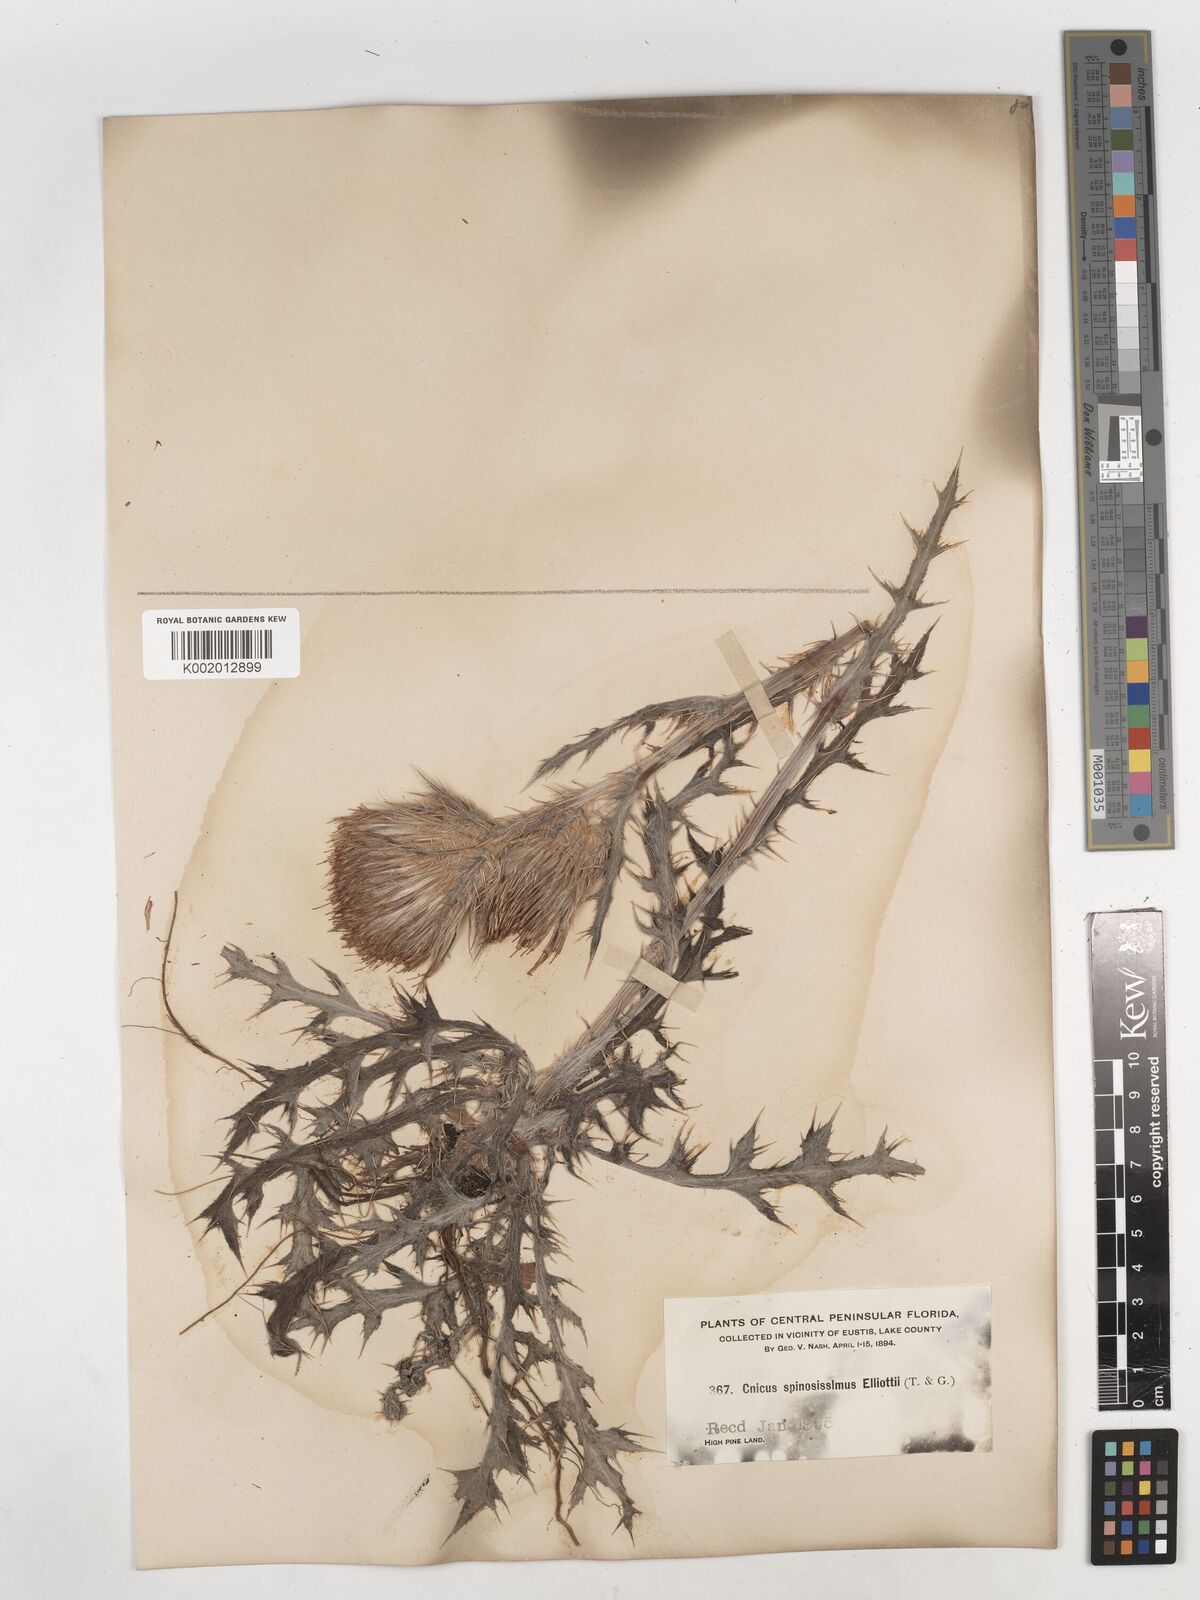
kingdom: Plantae
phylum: Tracheophyta
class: Magnoliopsida
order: Asterales
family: Asteraceae
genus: Cirsium
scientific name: Cirsium horridulum
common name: Bristly thistle
